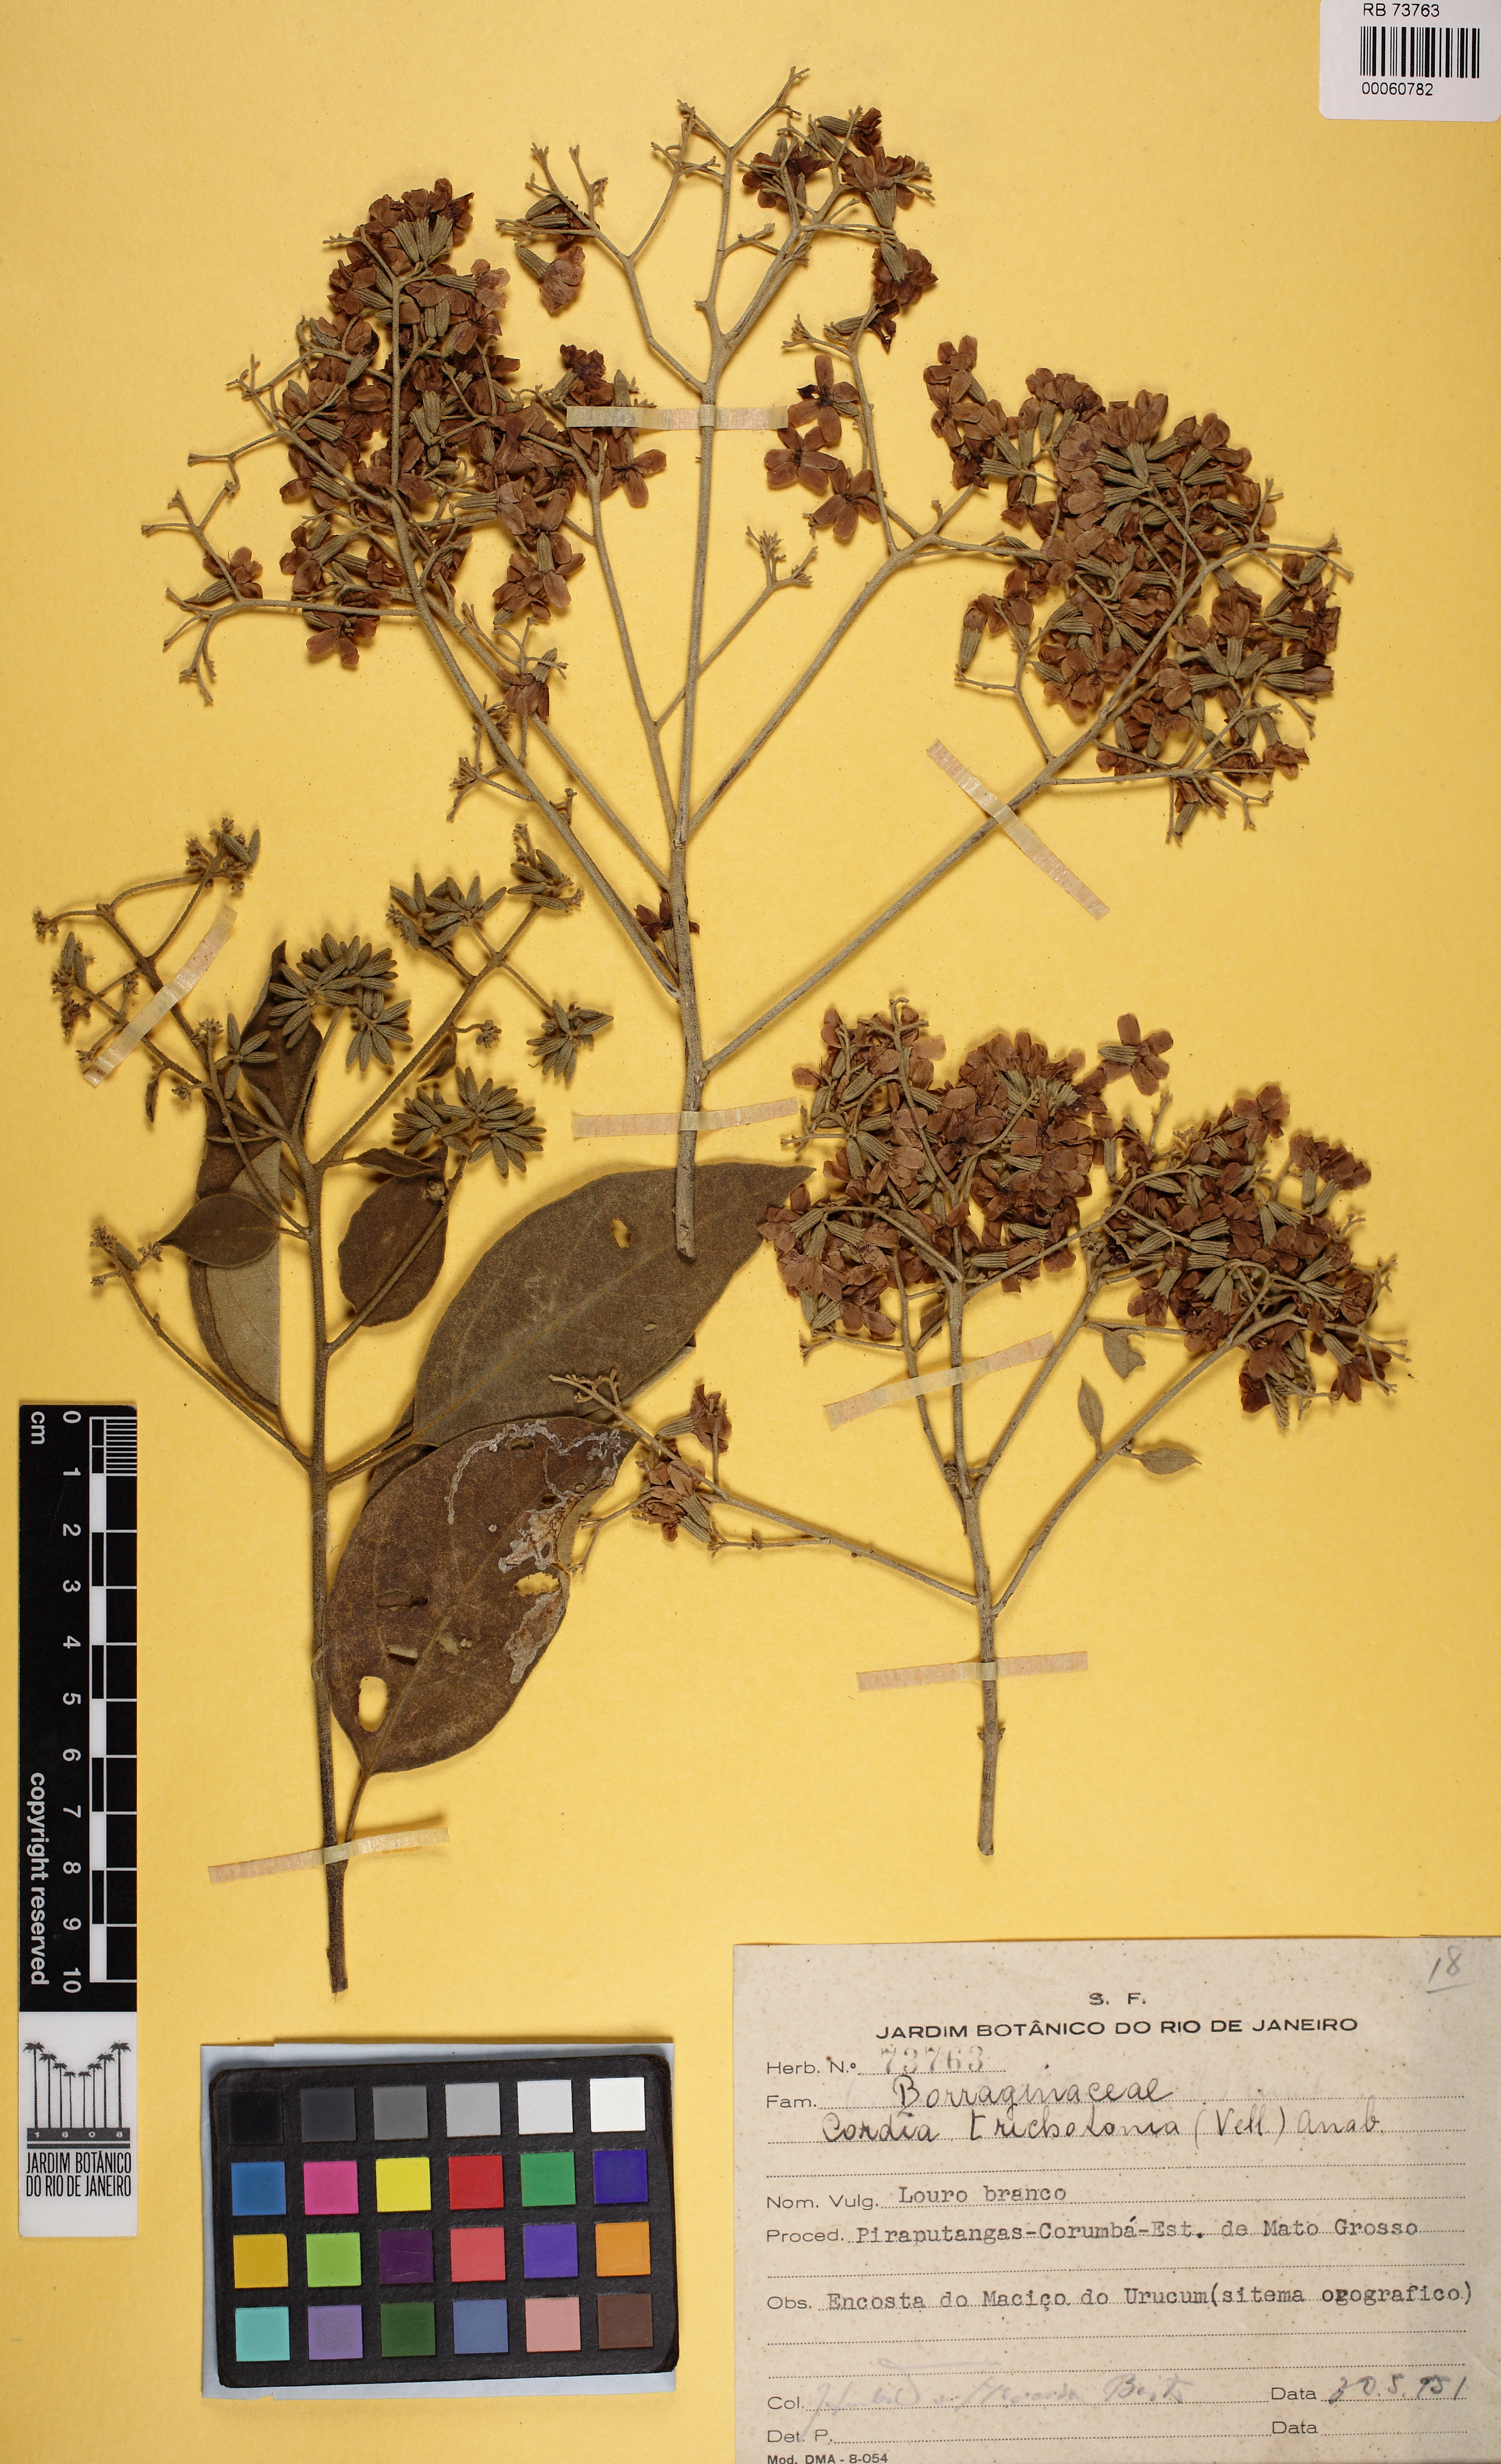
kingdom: Plantae
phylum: Tracheophyta
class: Magnoliopsida
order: Boraginales
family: Cordiaceae
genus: Cordia
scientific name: Cordia trichotoma
